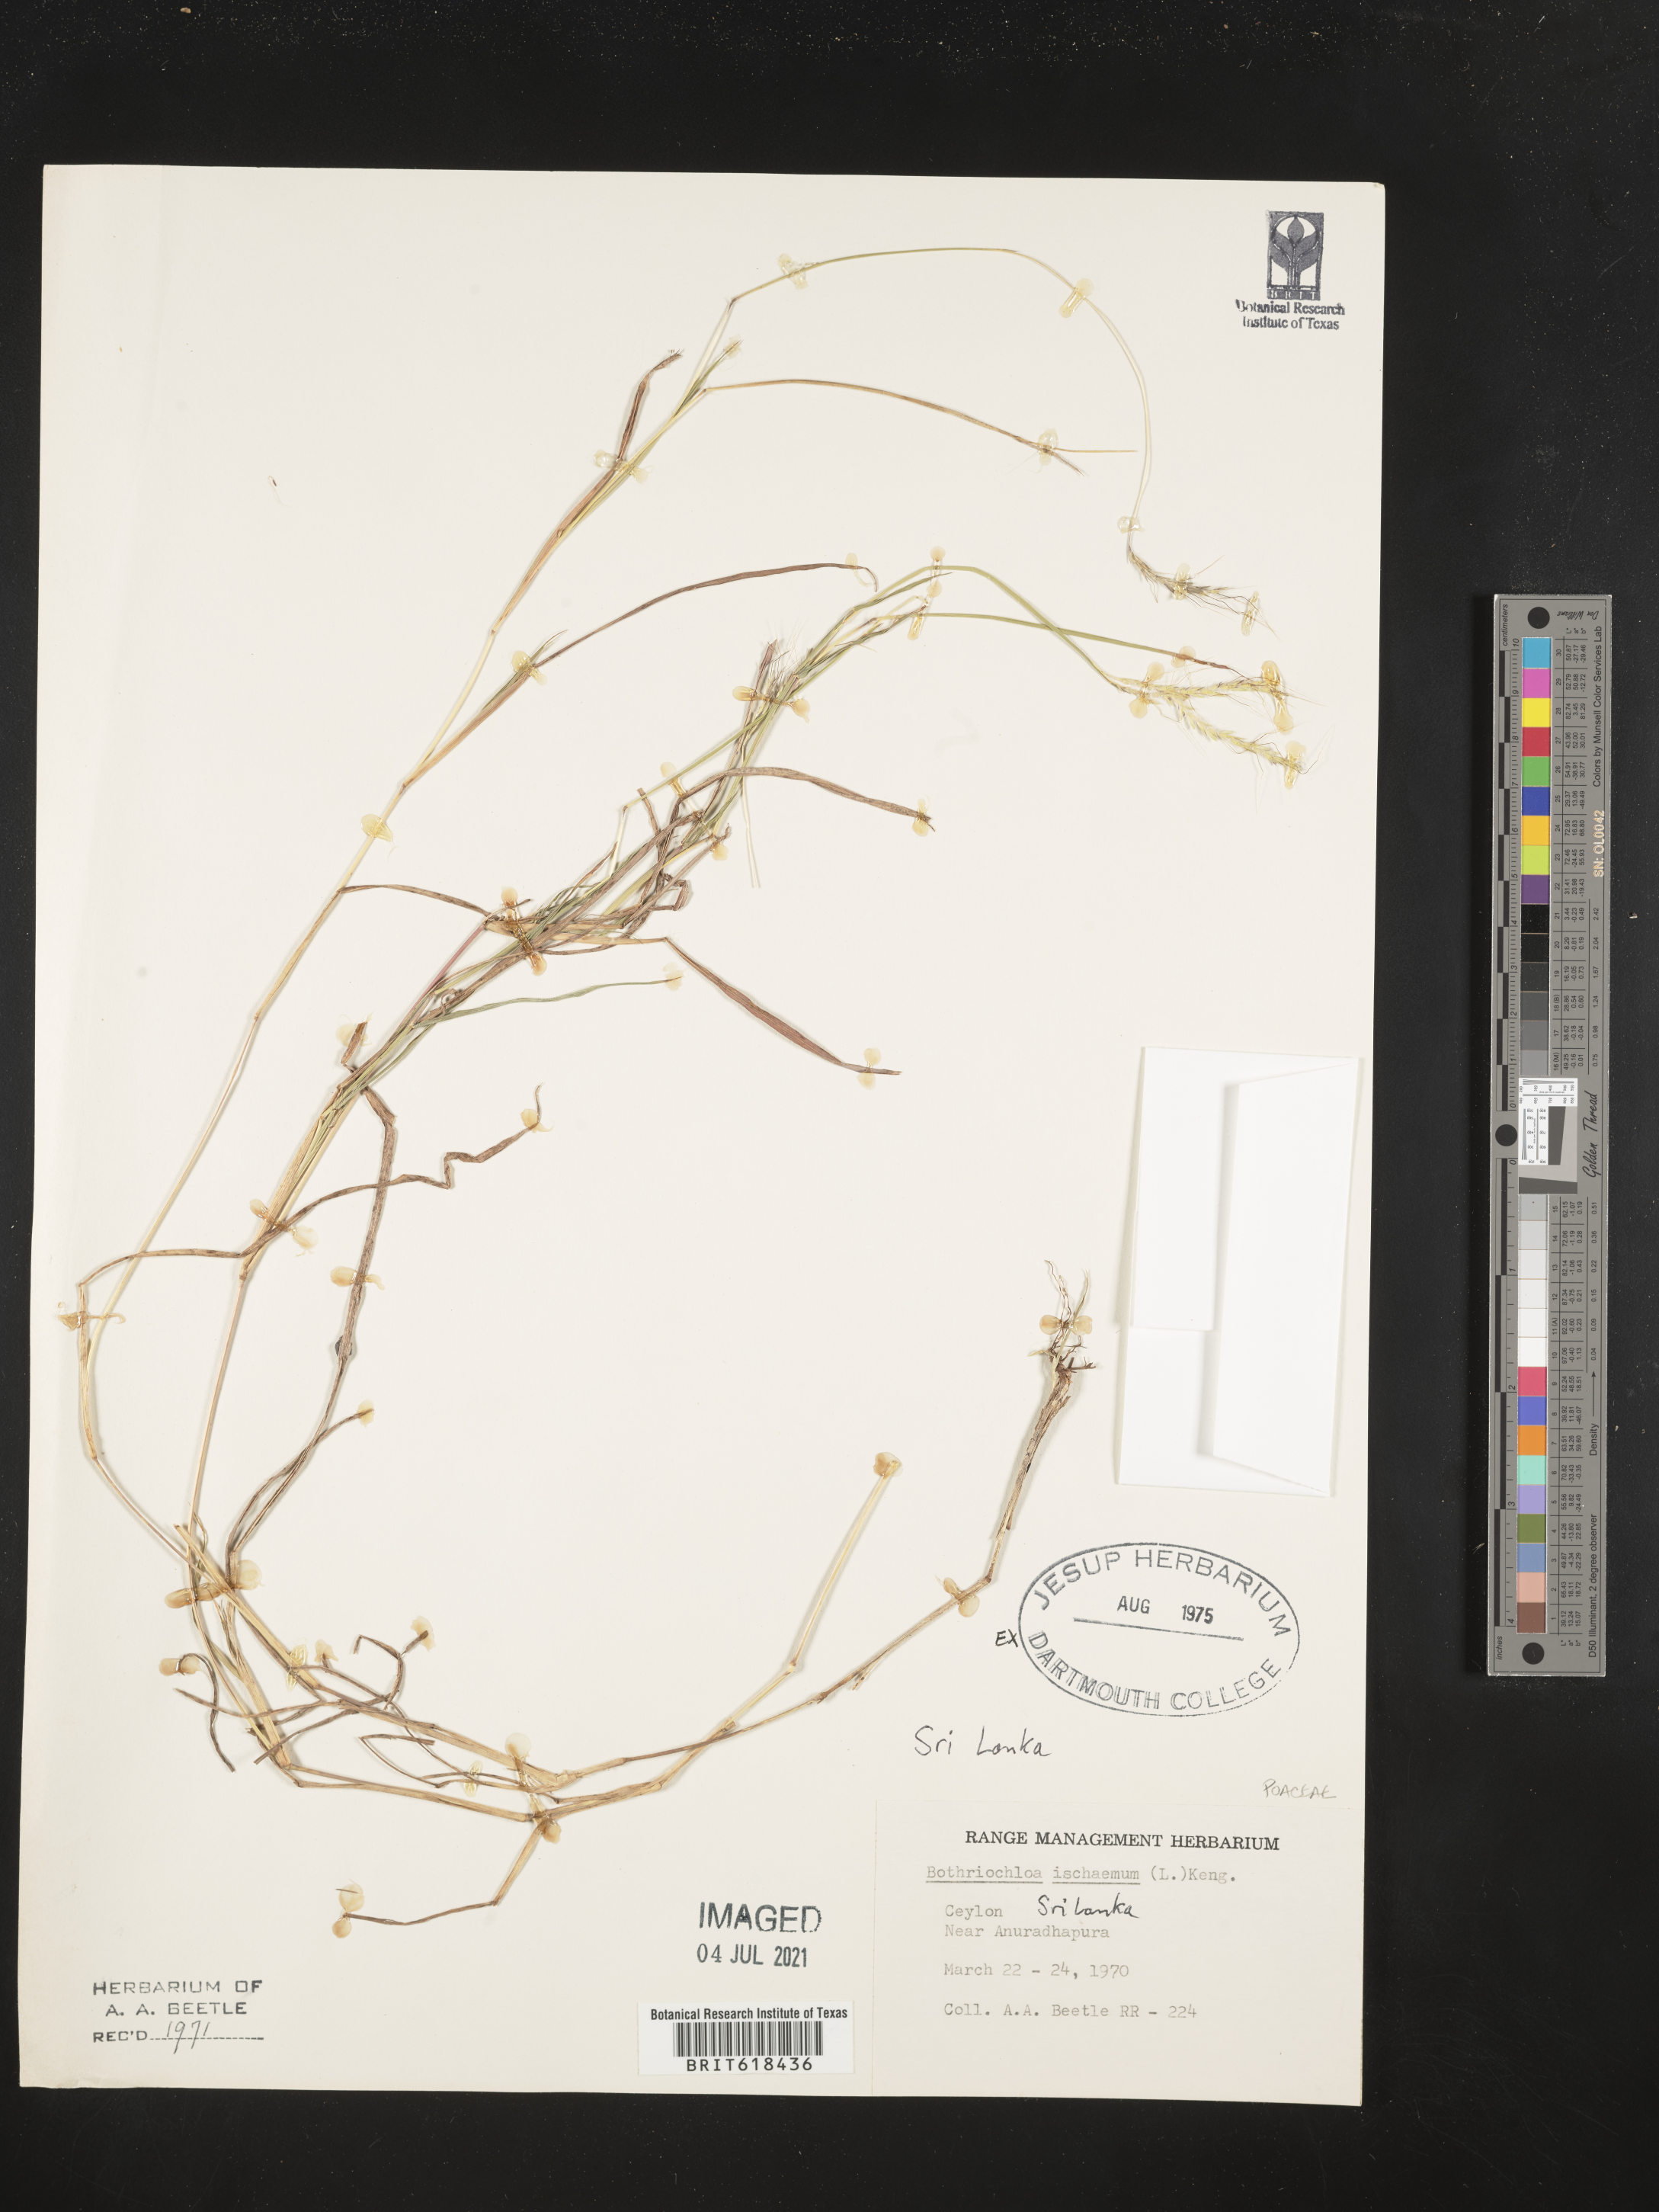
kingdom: Plantae
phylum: Tracheophyta
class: Liliopsida
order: Poales
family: Poaceae
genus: Bothriochloa
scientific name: Bothriochloa ischaemum
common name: Yellow bluestem
